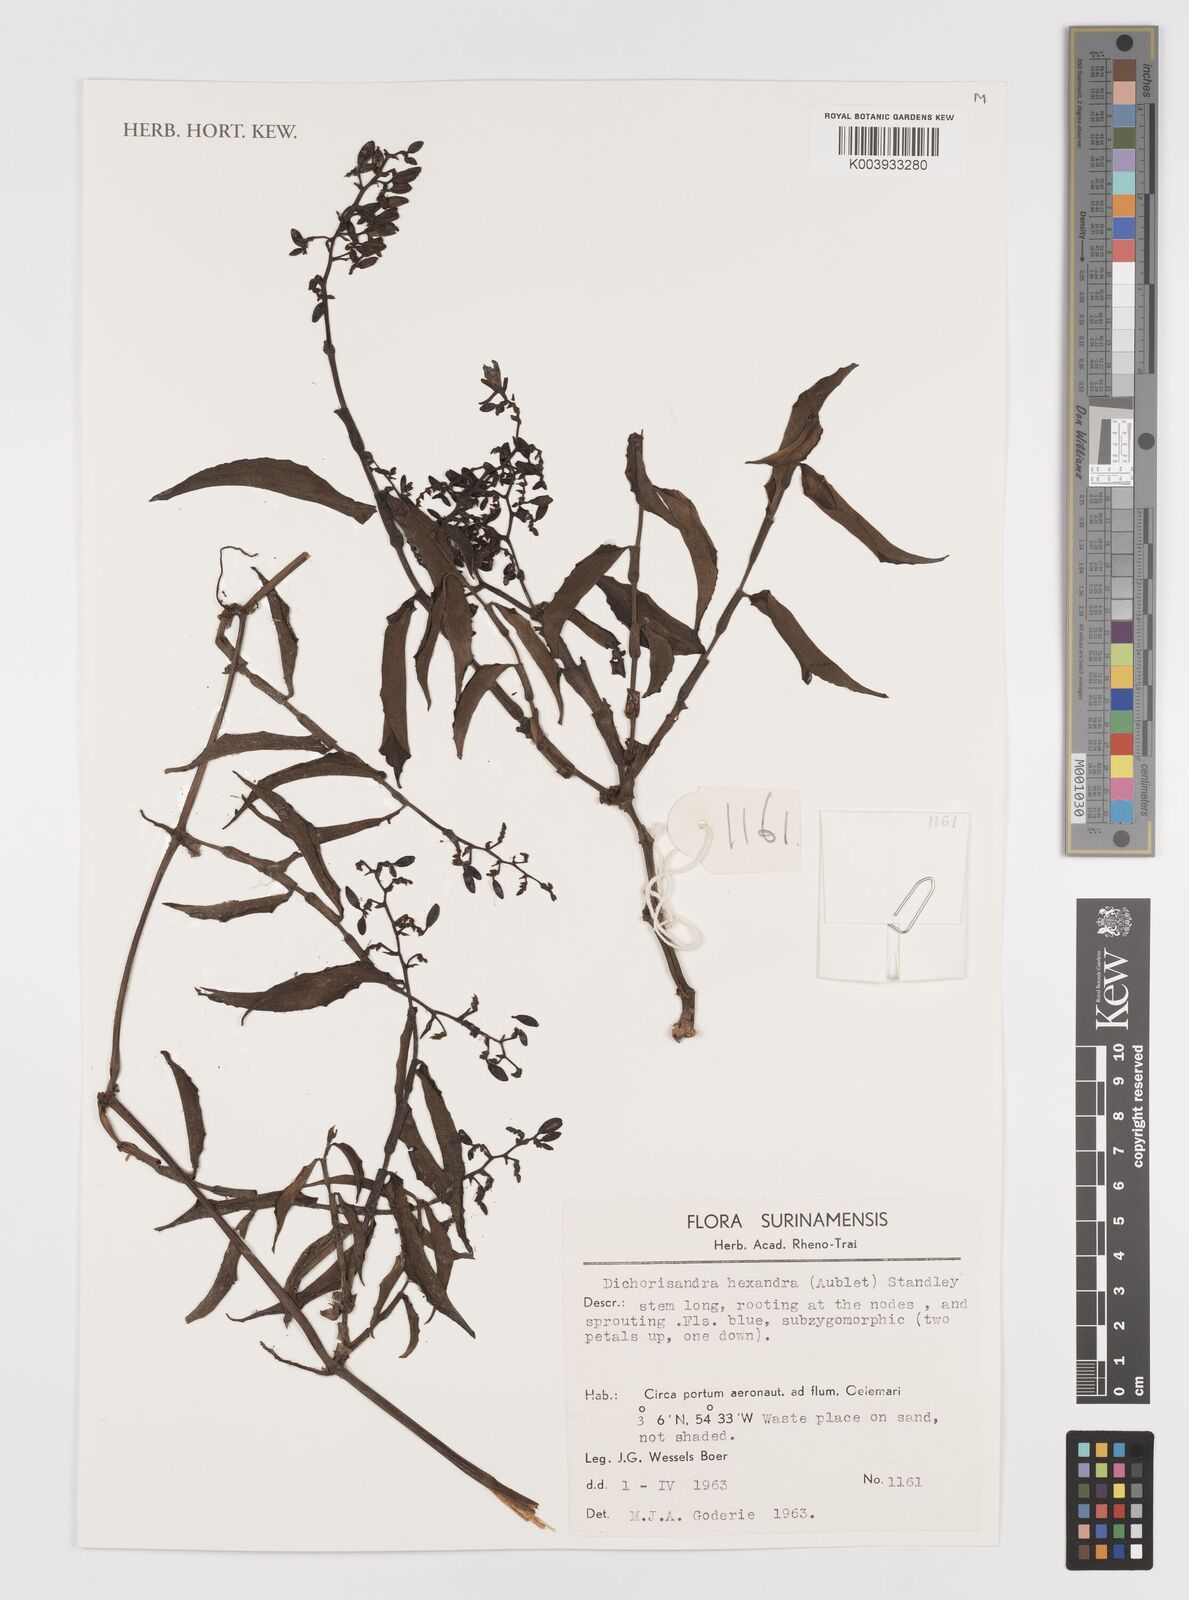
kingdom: Plantae
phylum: Tracheophyta
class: Liliopsida
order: Commelinales
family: Commelinaceae
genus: Dichorisandra
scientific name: Dichorisandra hexandra
